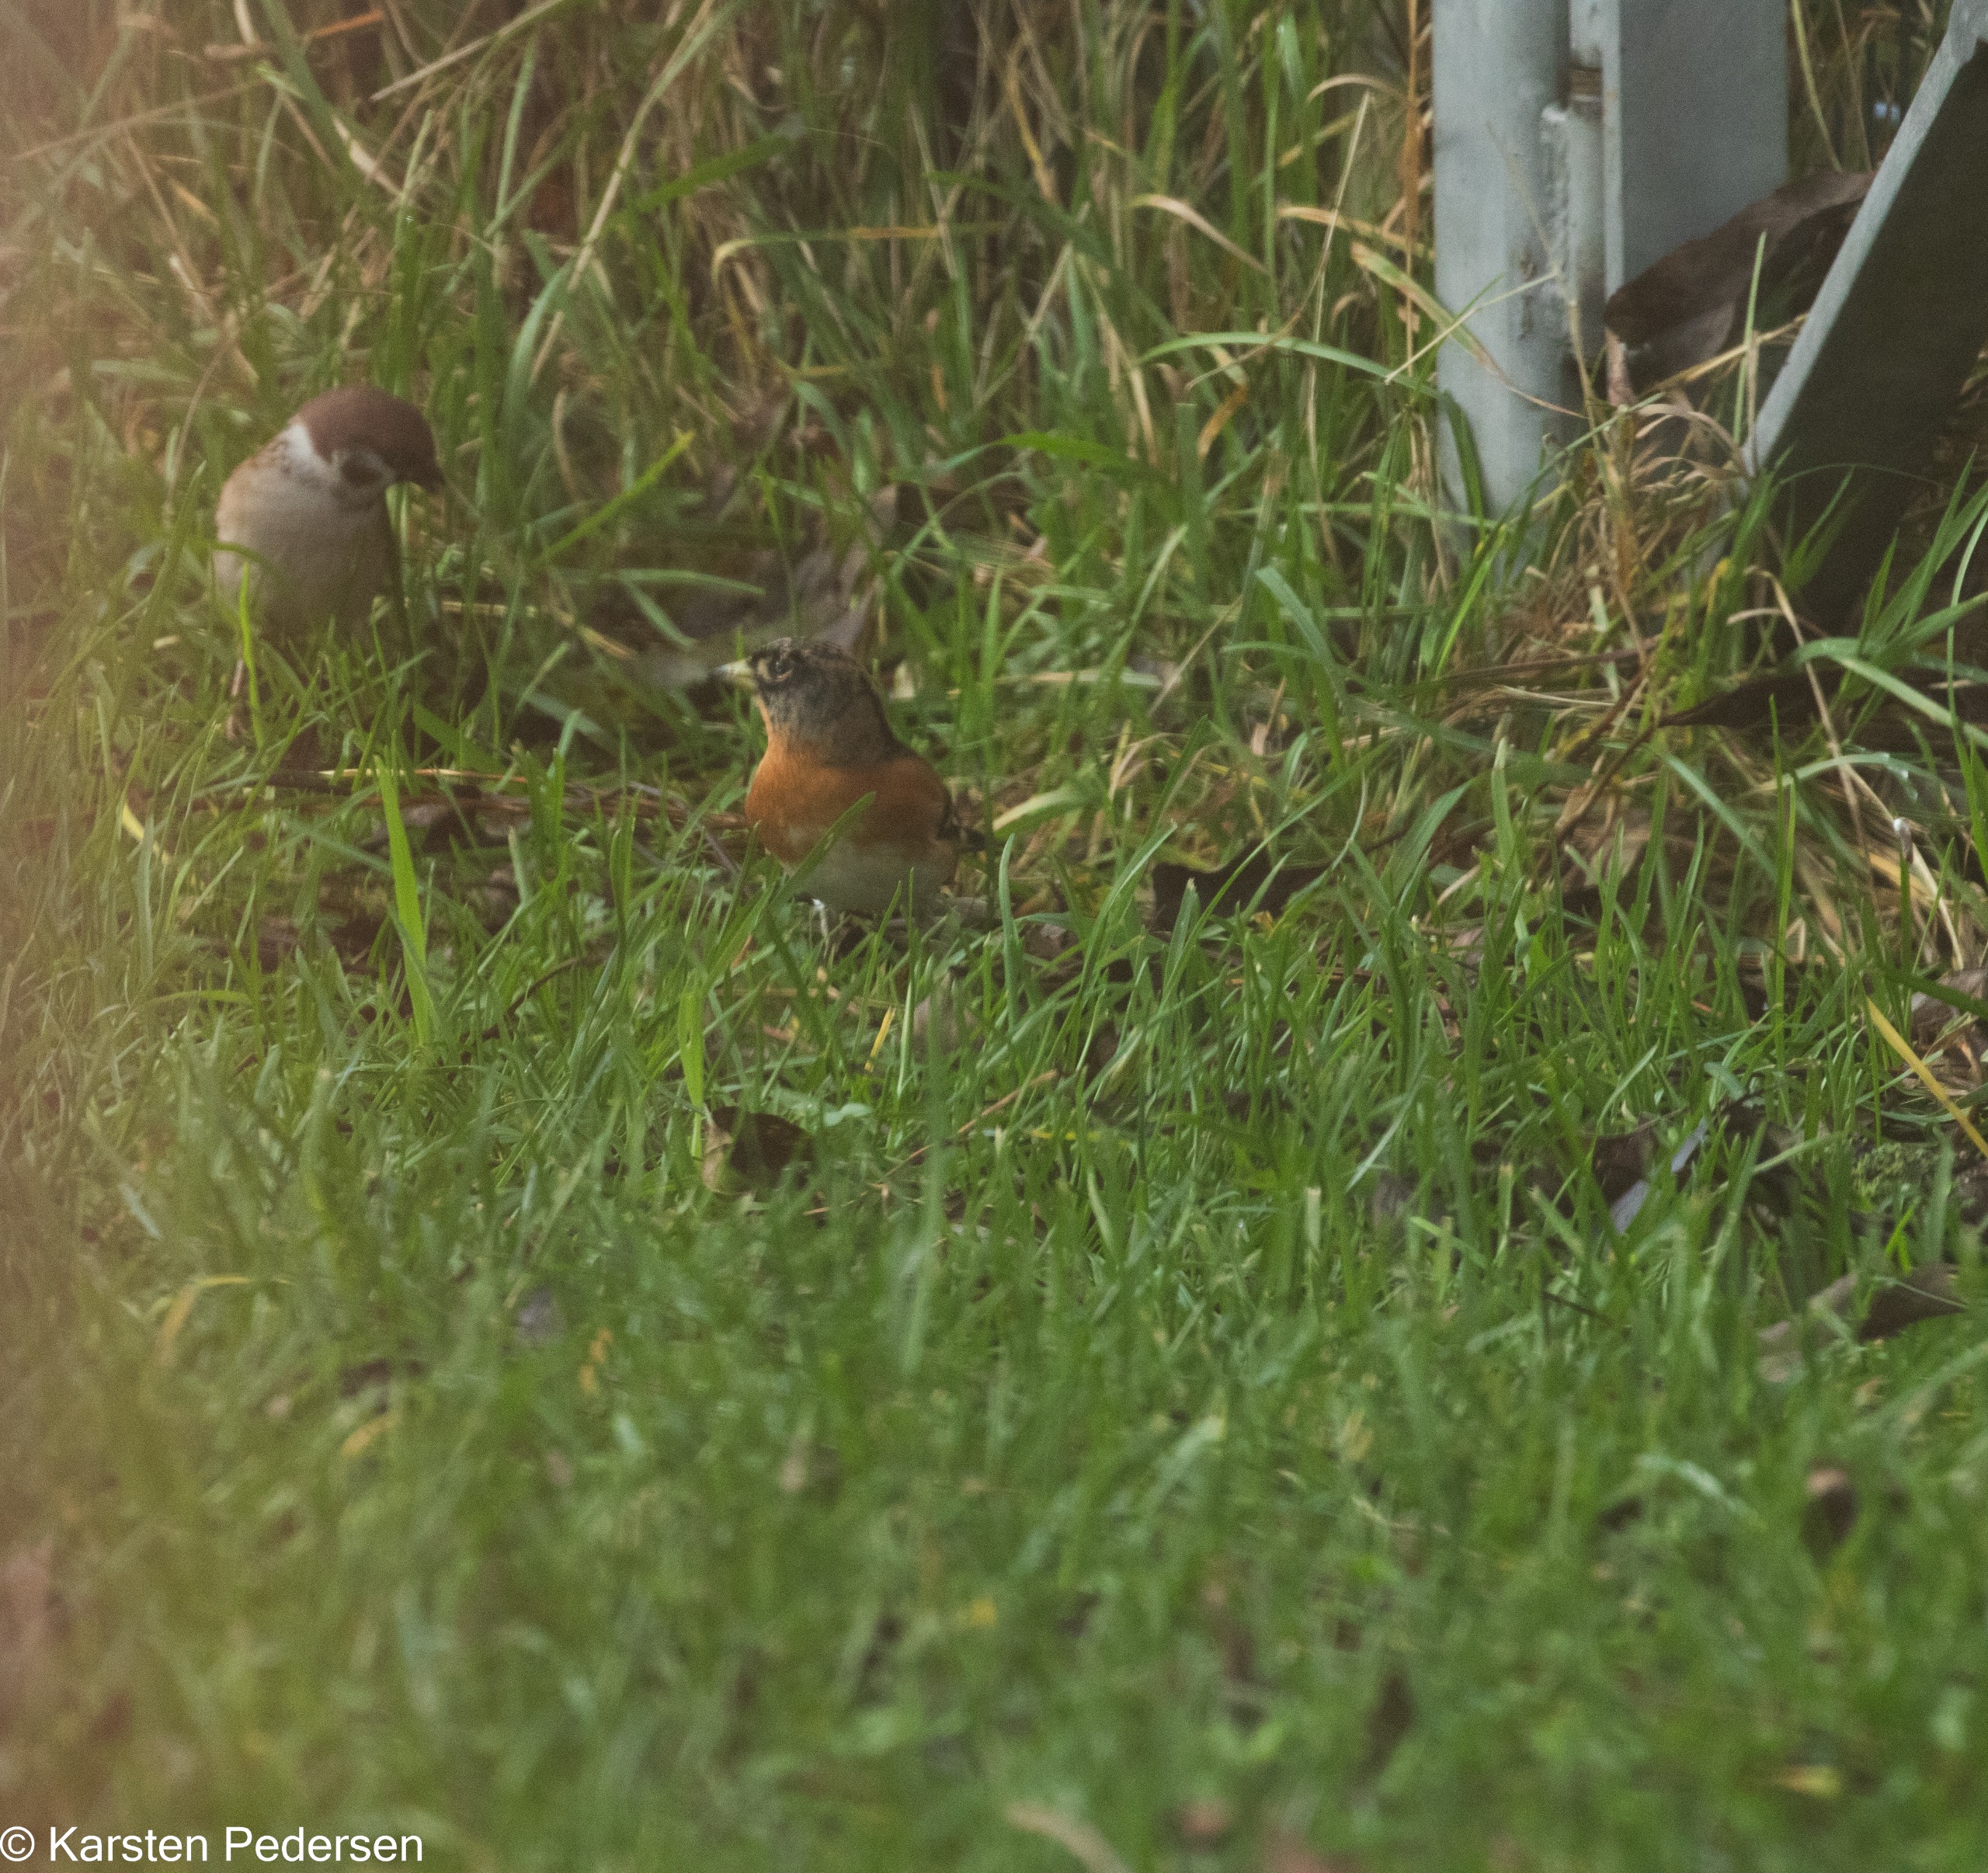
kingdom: Animalia
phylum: Chordata
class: Aves
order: Passeriformes
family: Fringillidae
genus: Fringilla
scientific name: Fringilla montifringilla
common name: Kvækerfinke
